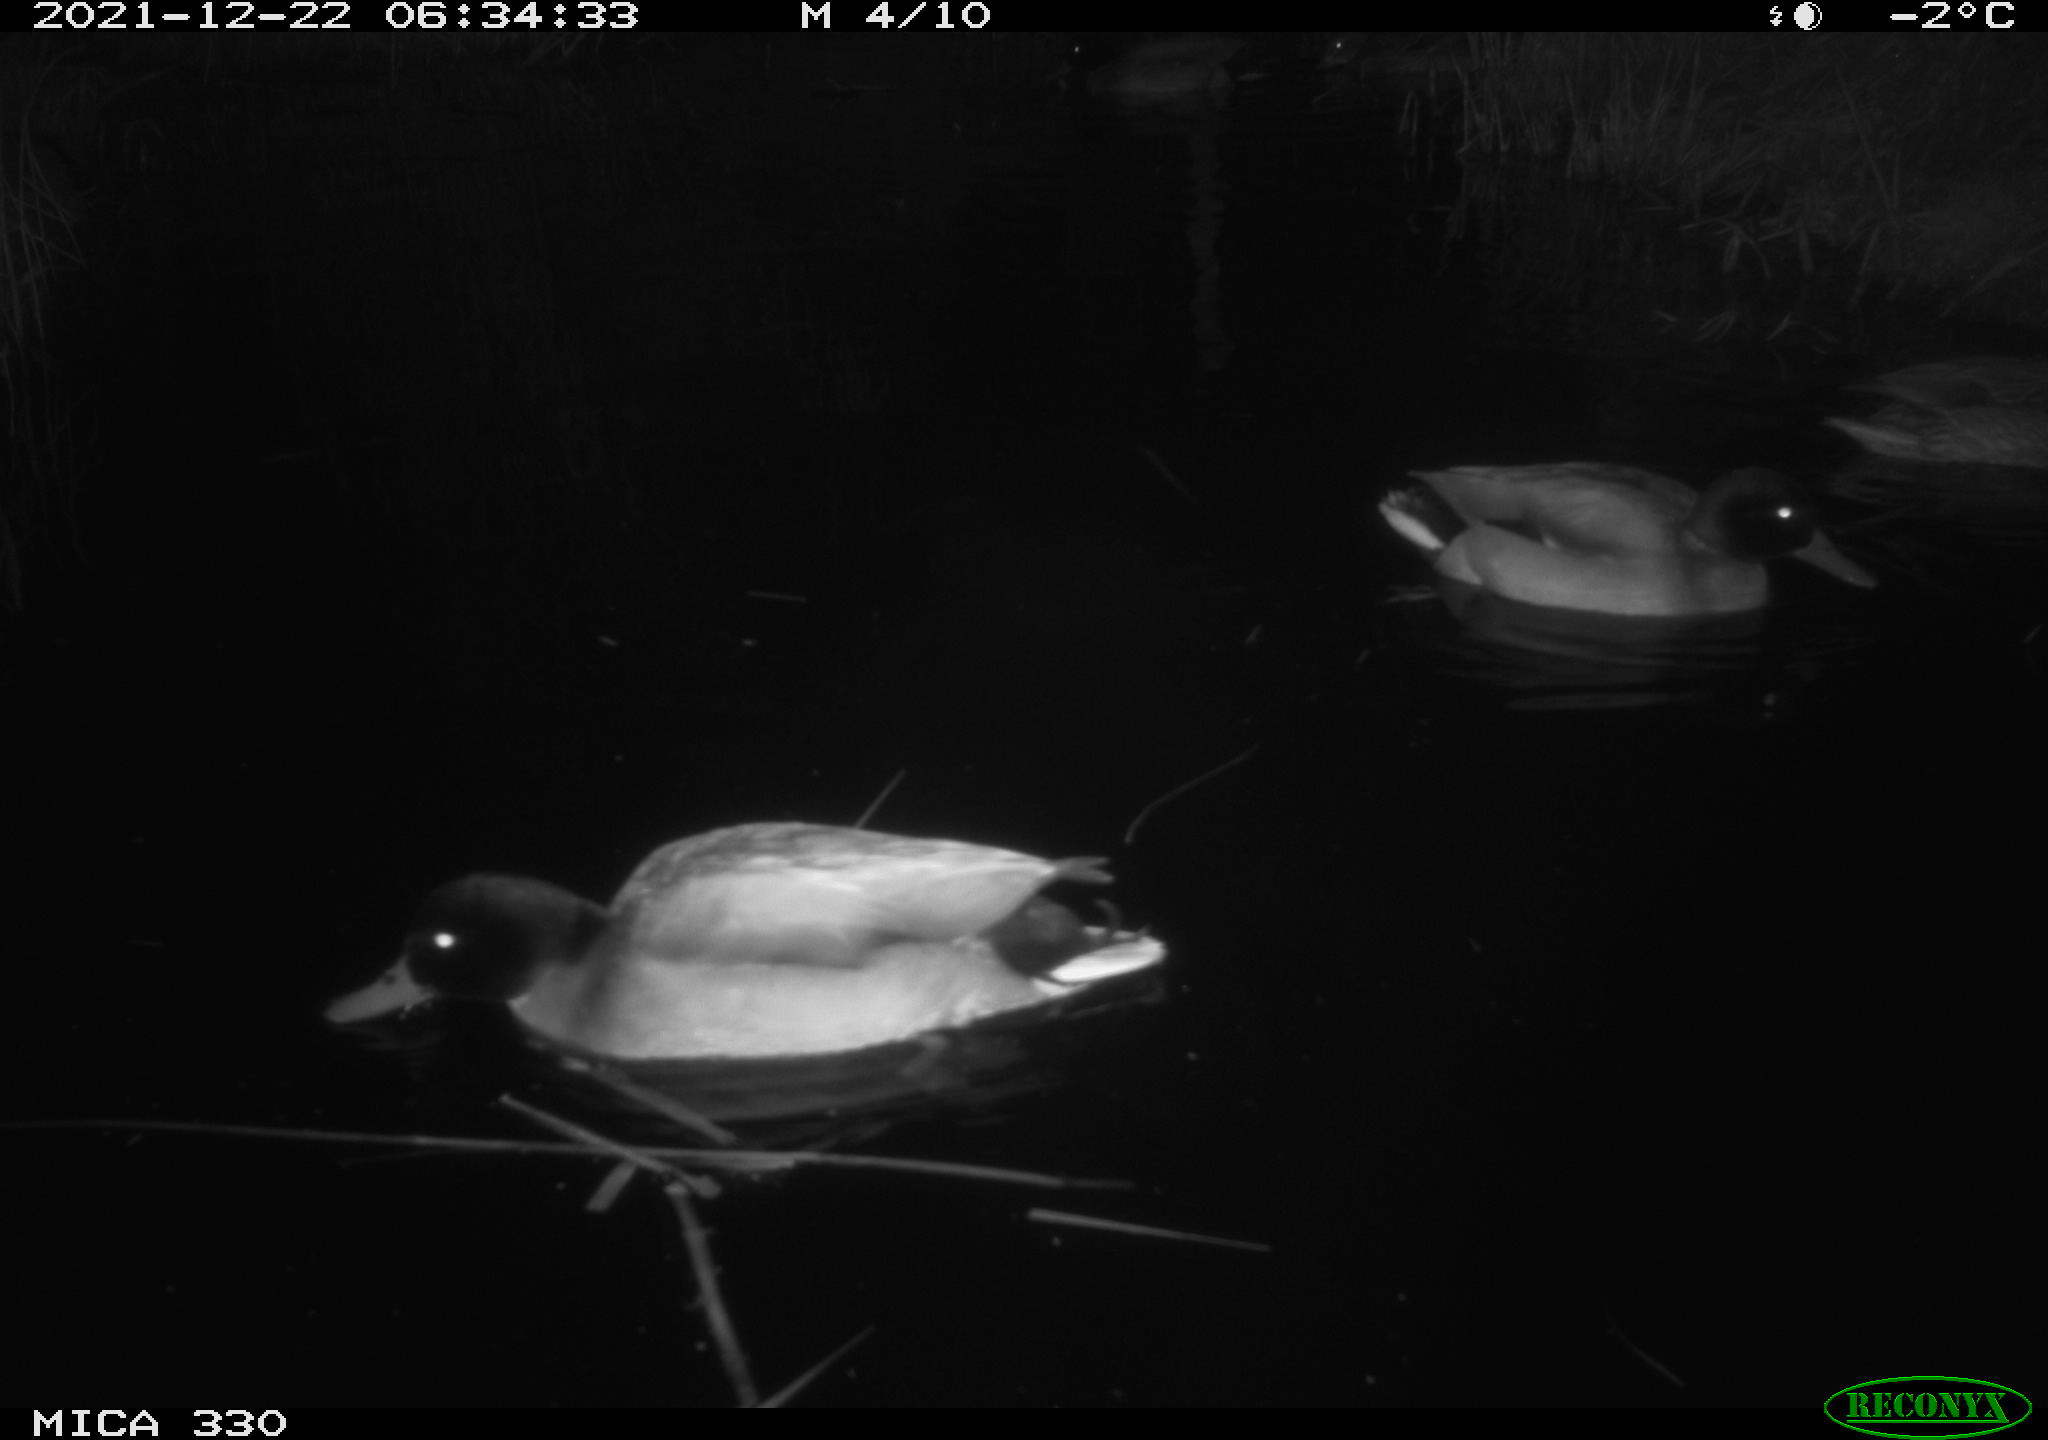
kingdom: Animalia
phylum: Chordata
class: Aves
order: Anseriformes
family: Anatidae
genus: Anas
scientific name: Anas platyrhynchos
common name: Mallard
